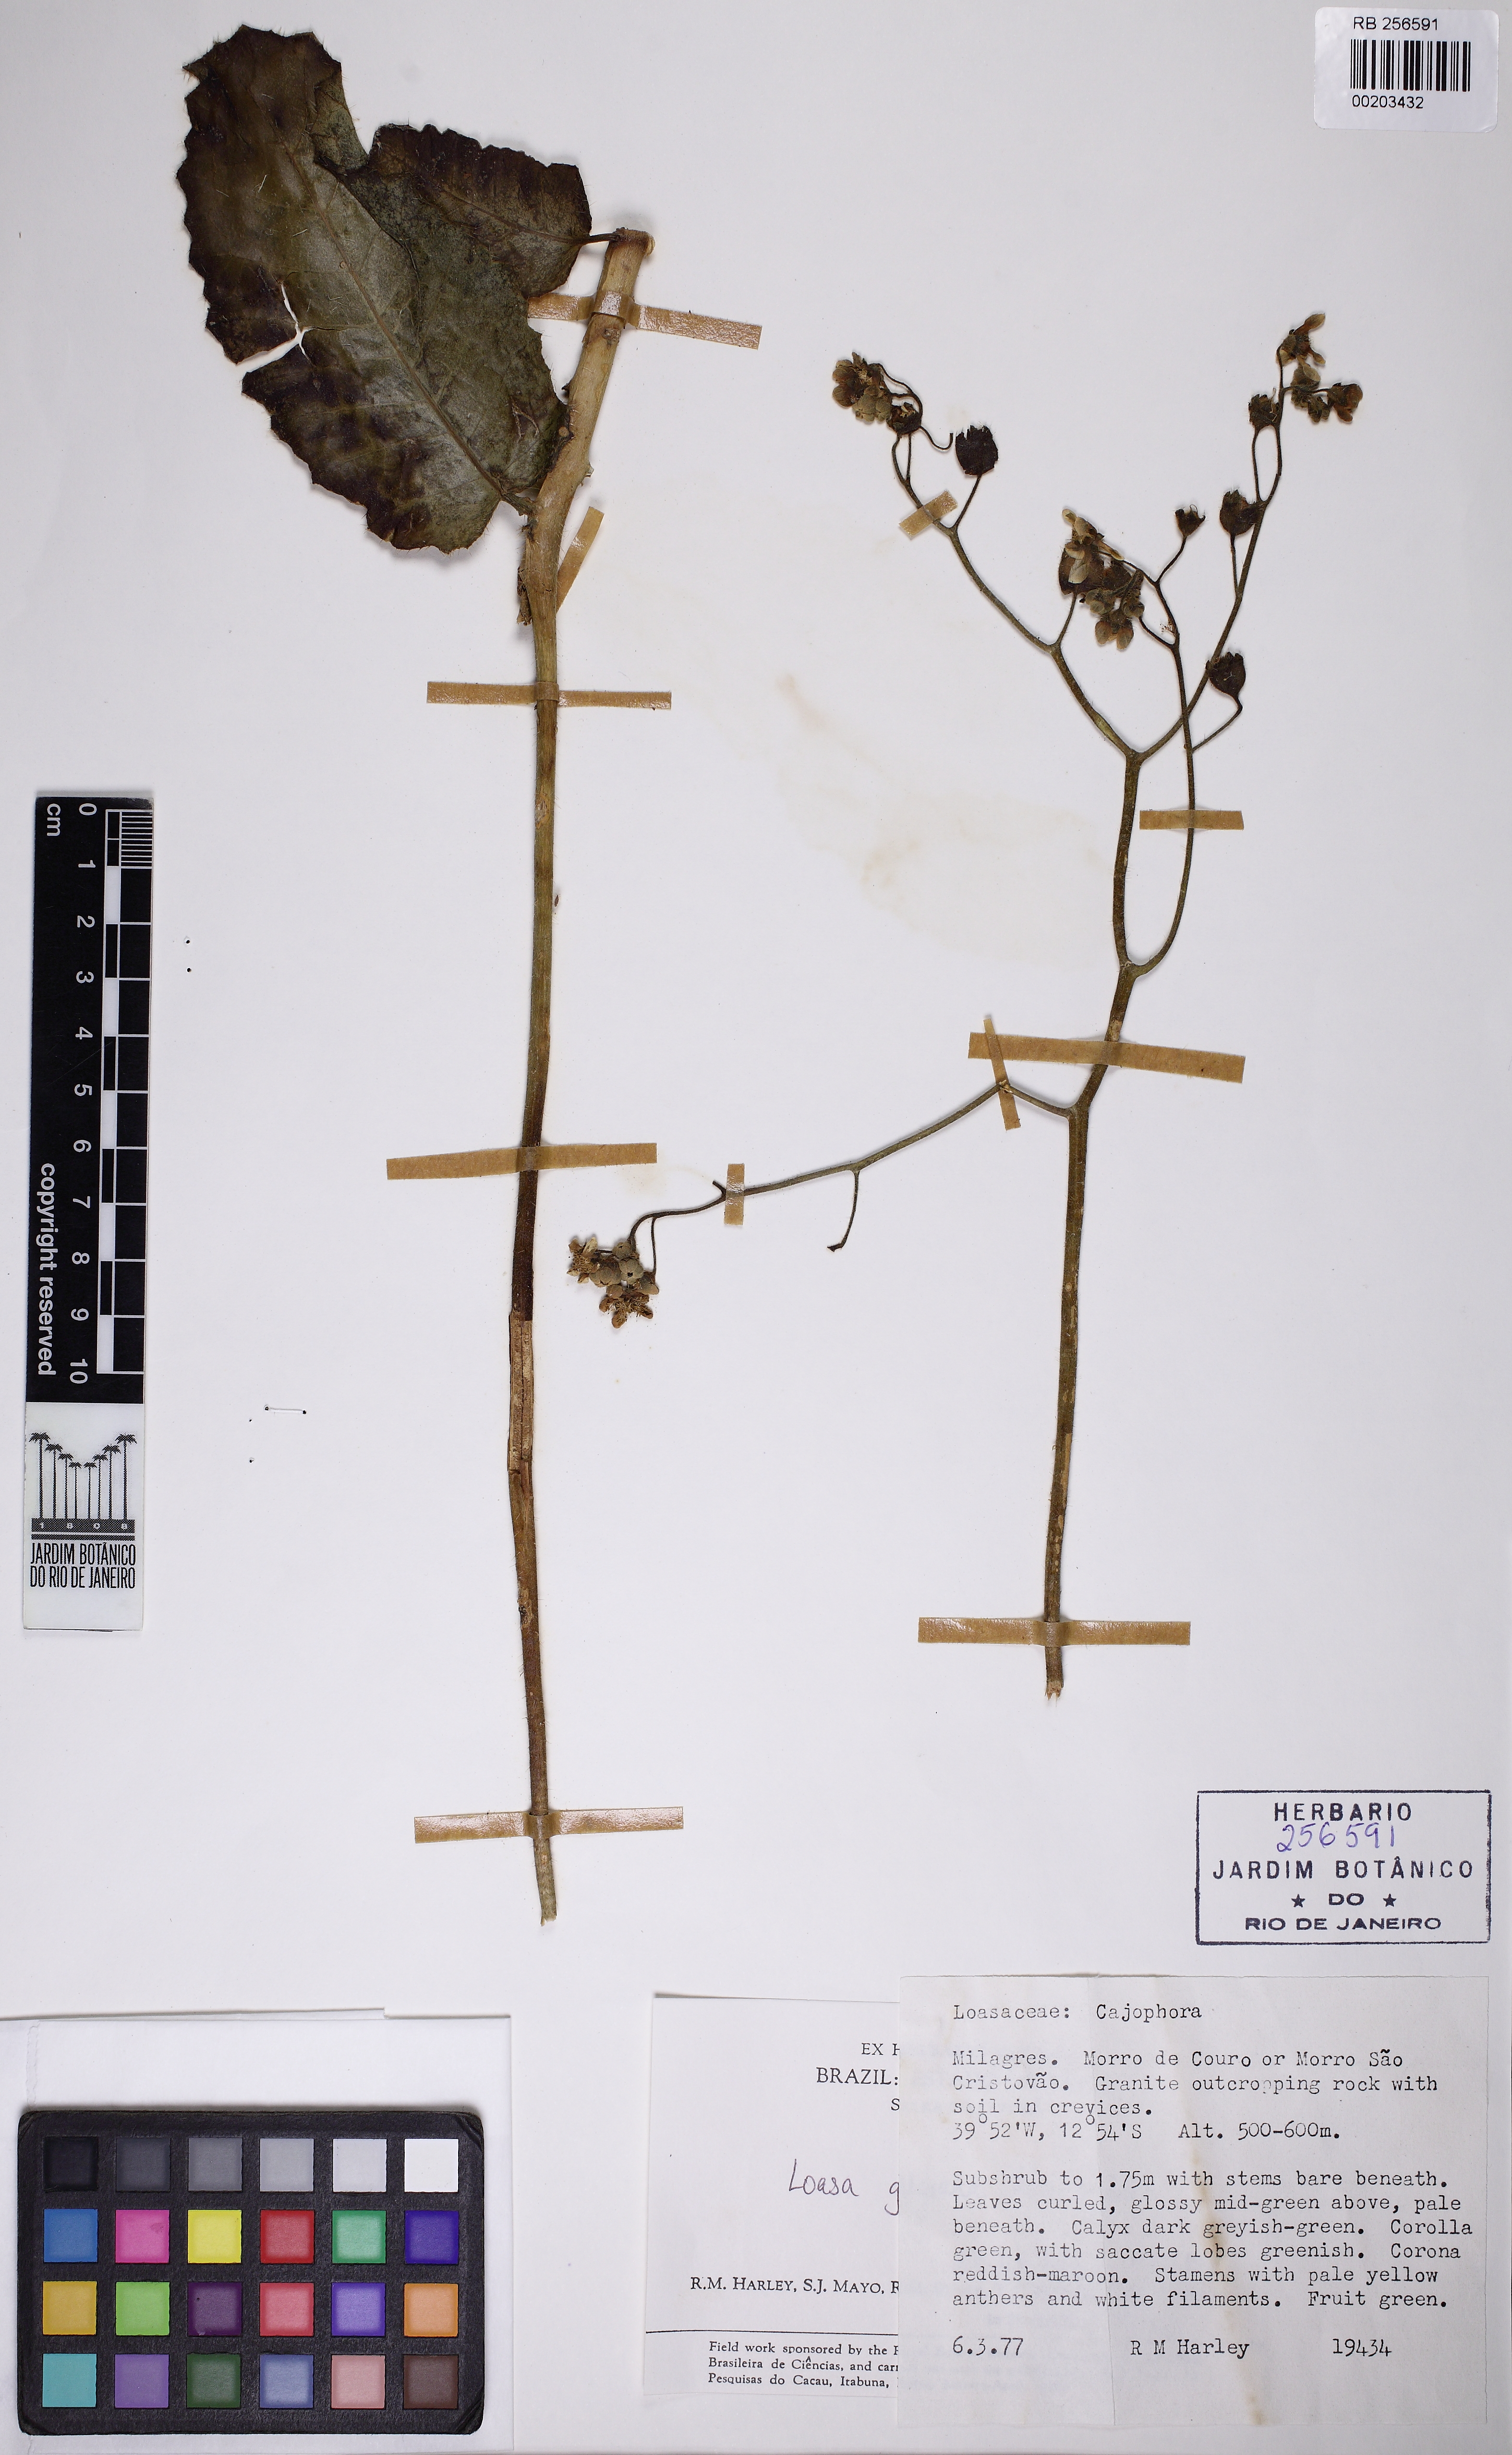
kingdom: Plantae
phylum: Tracheophyta
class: Magnoliopsida
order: Cornales
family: Loasaceae
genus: Aosa
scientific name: Aosa gilgiana
